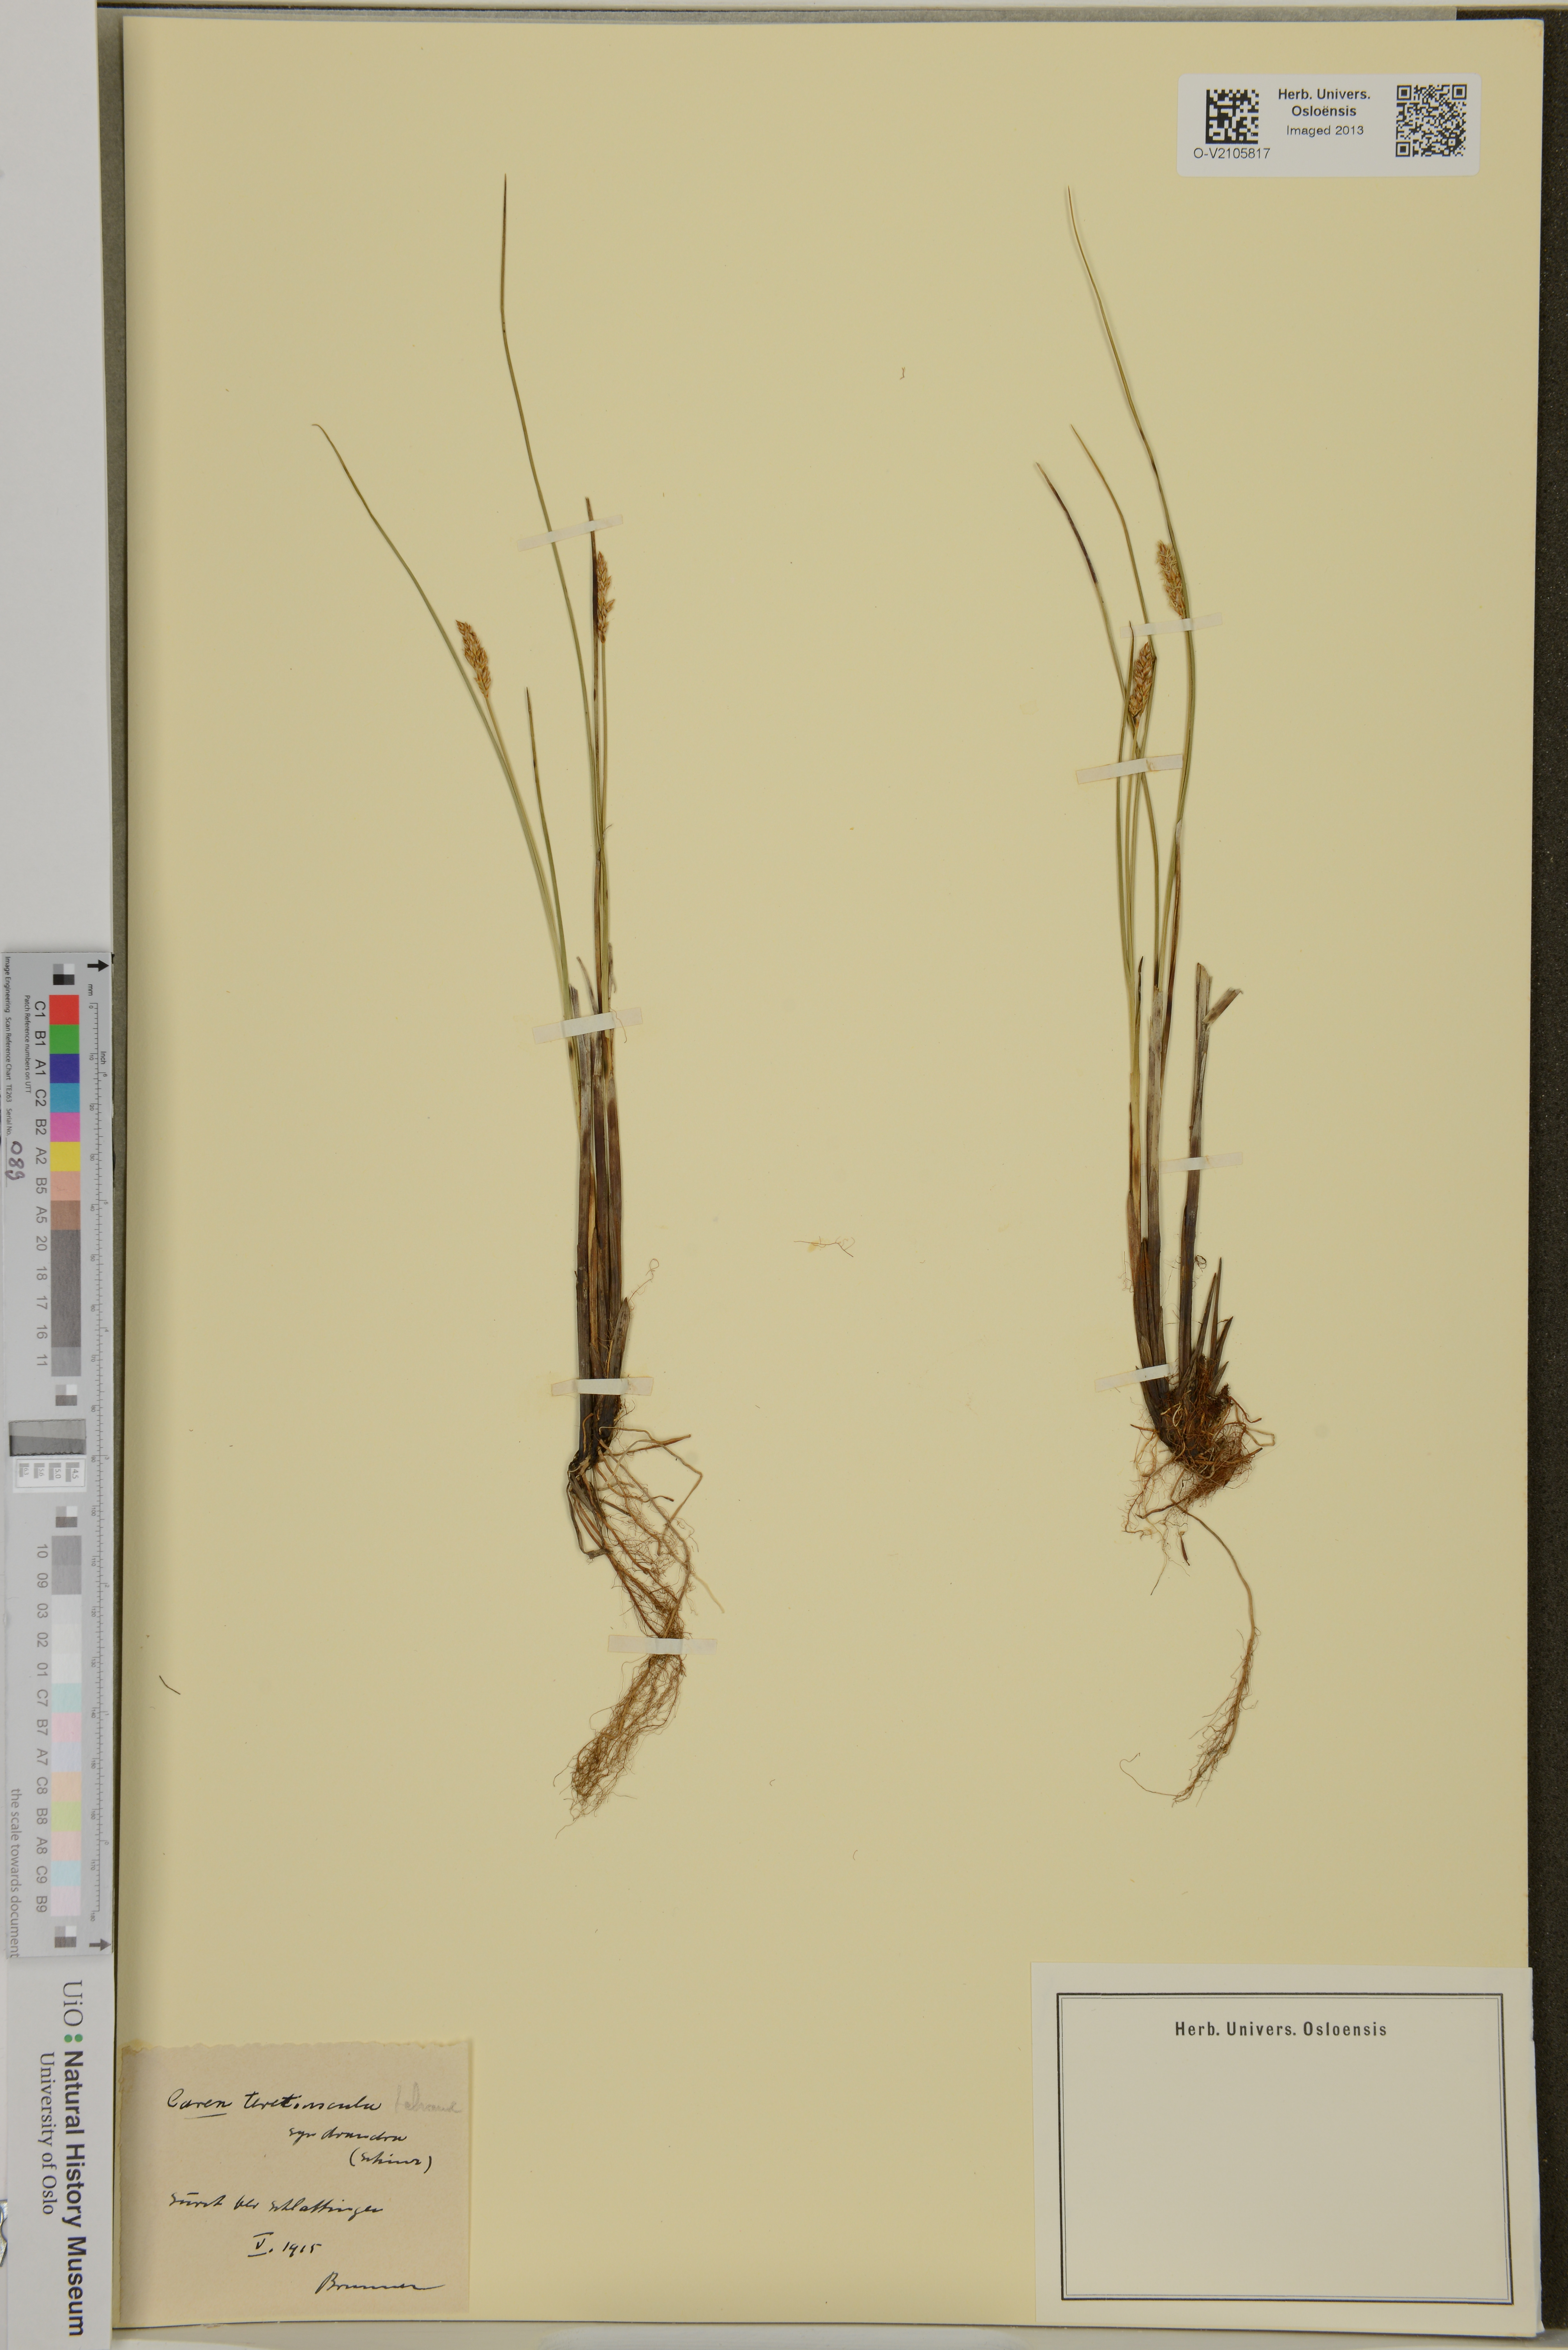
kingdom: Plantae
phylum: Tracheophyta
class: Liliopsida
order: Poales
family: Cyperaceae
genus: Carex
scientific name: Carex diandra
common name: Lesser tussock-sedge
